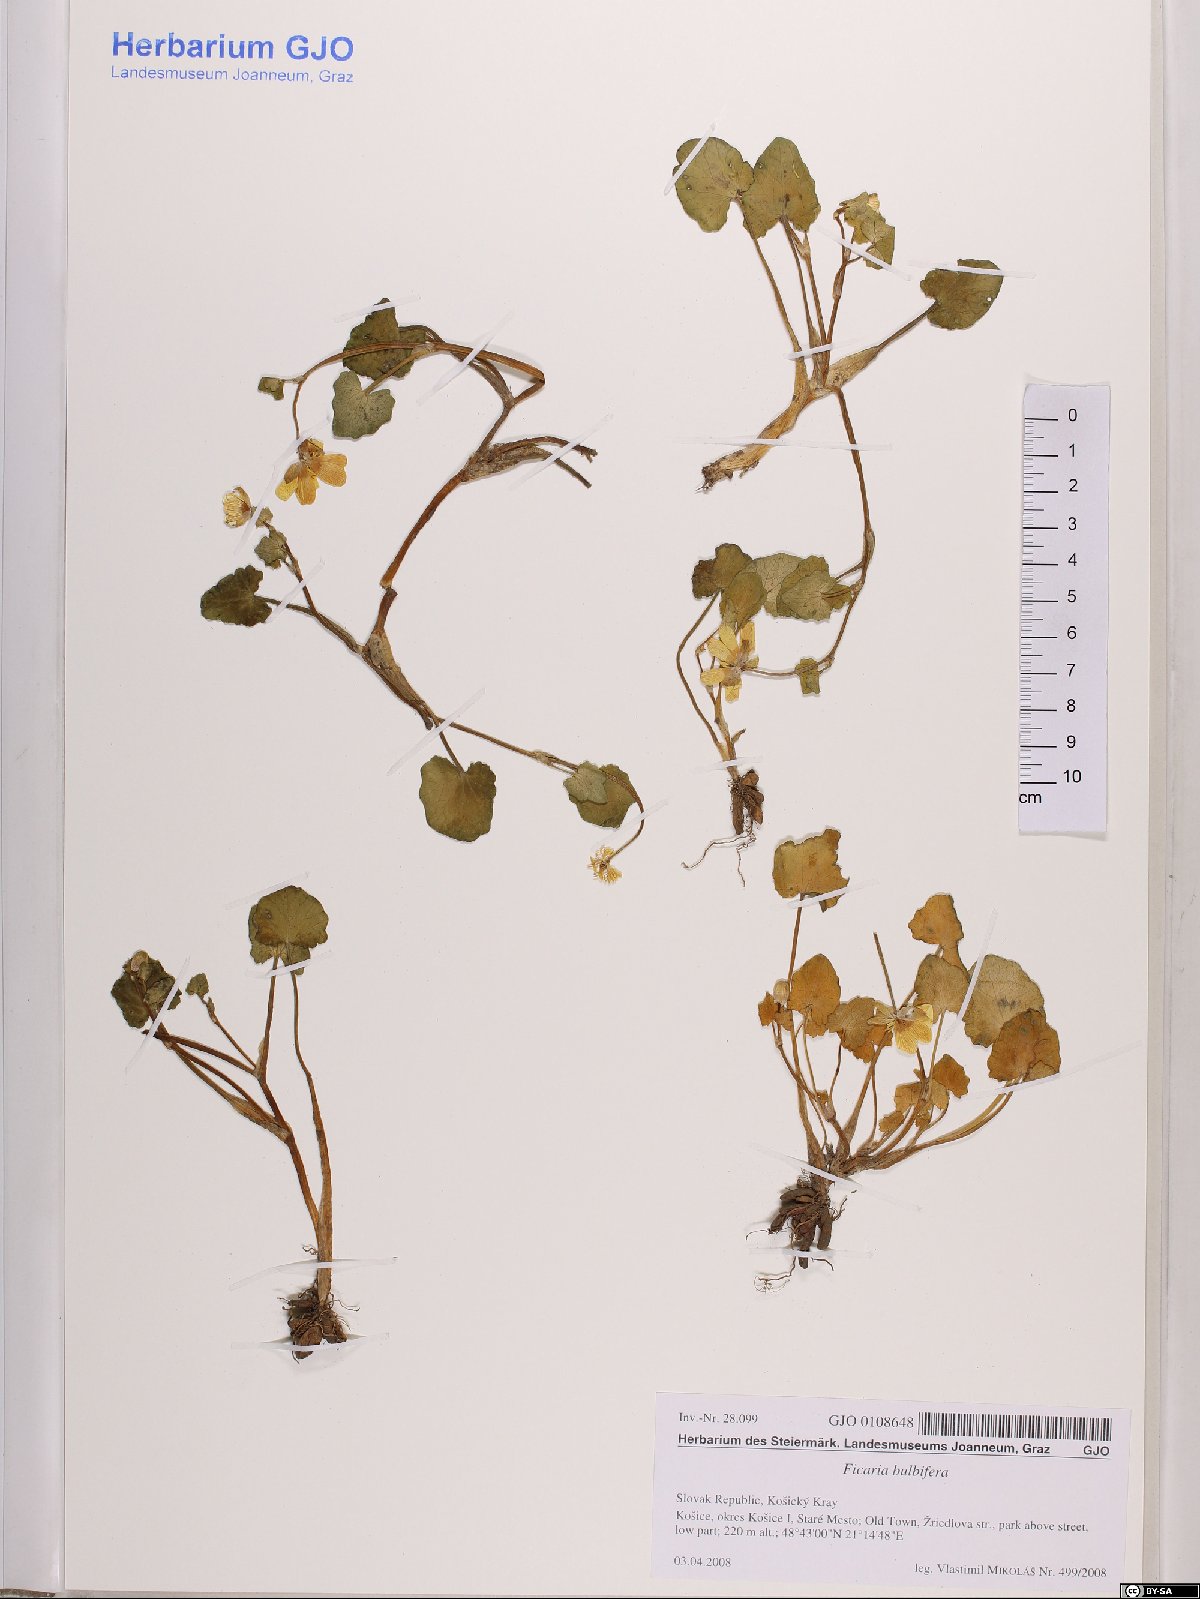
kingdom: Plantae
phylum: Tracheophyta
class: Magnoliopsida
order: Ranunculales
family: Ranunculaceae
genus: Ficaria
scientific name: Ficaria verna
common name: Lesser celandine
